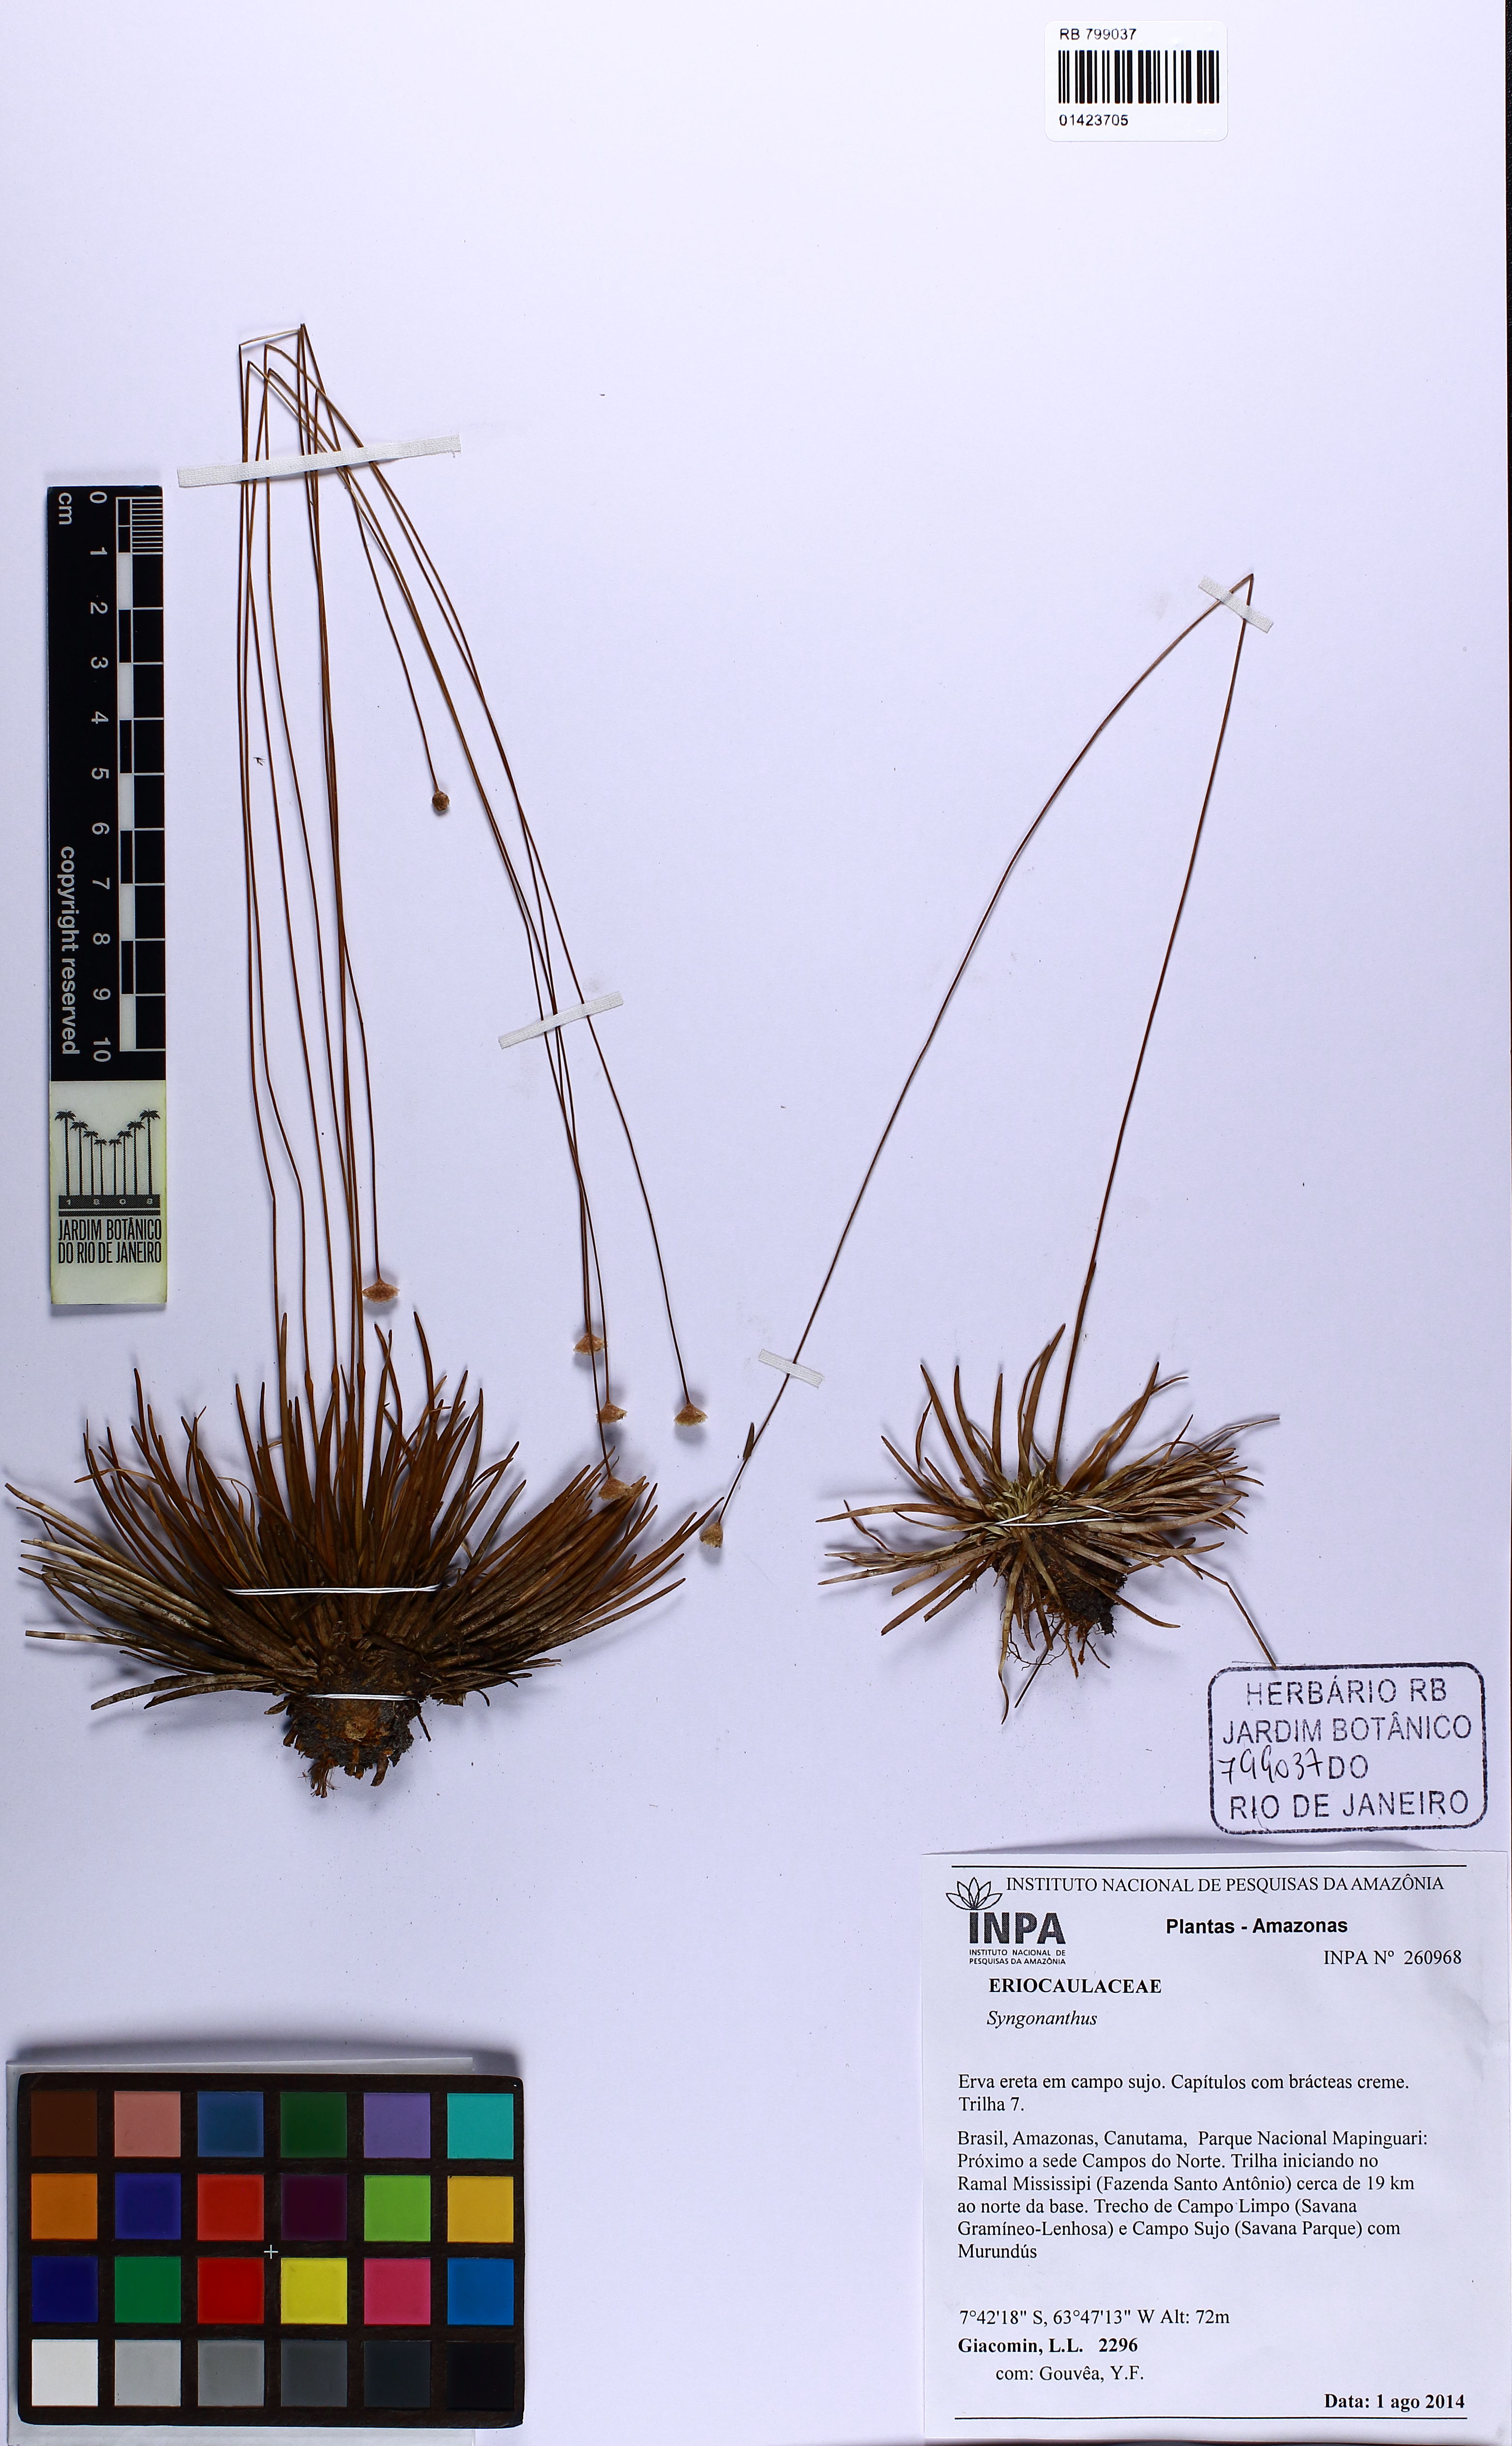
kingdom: Plantae
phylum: Tracheophyta
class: Liliopsida
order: Poales
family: Eriocaulaceae
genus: Syngonanthus
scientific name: Syngonanthus niger
